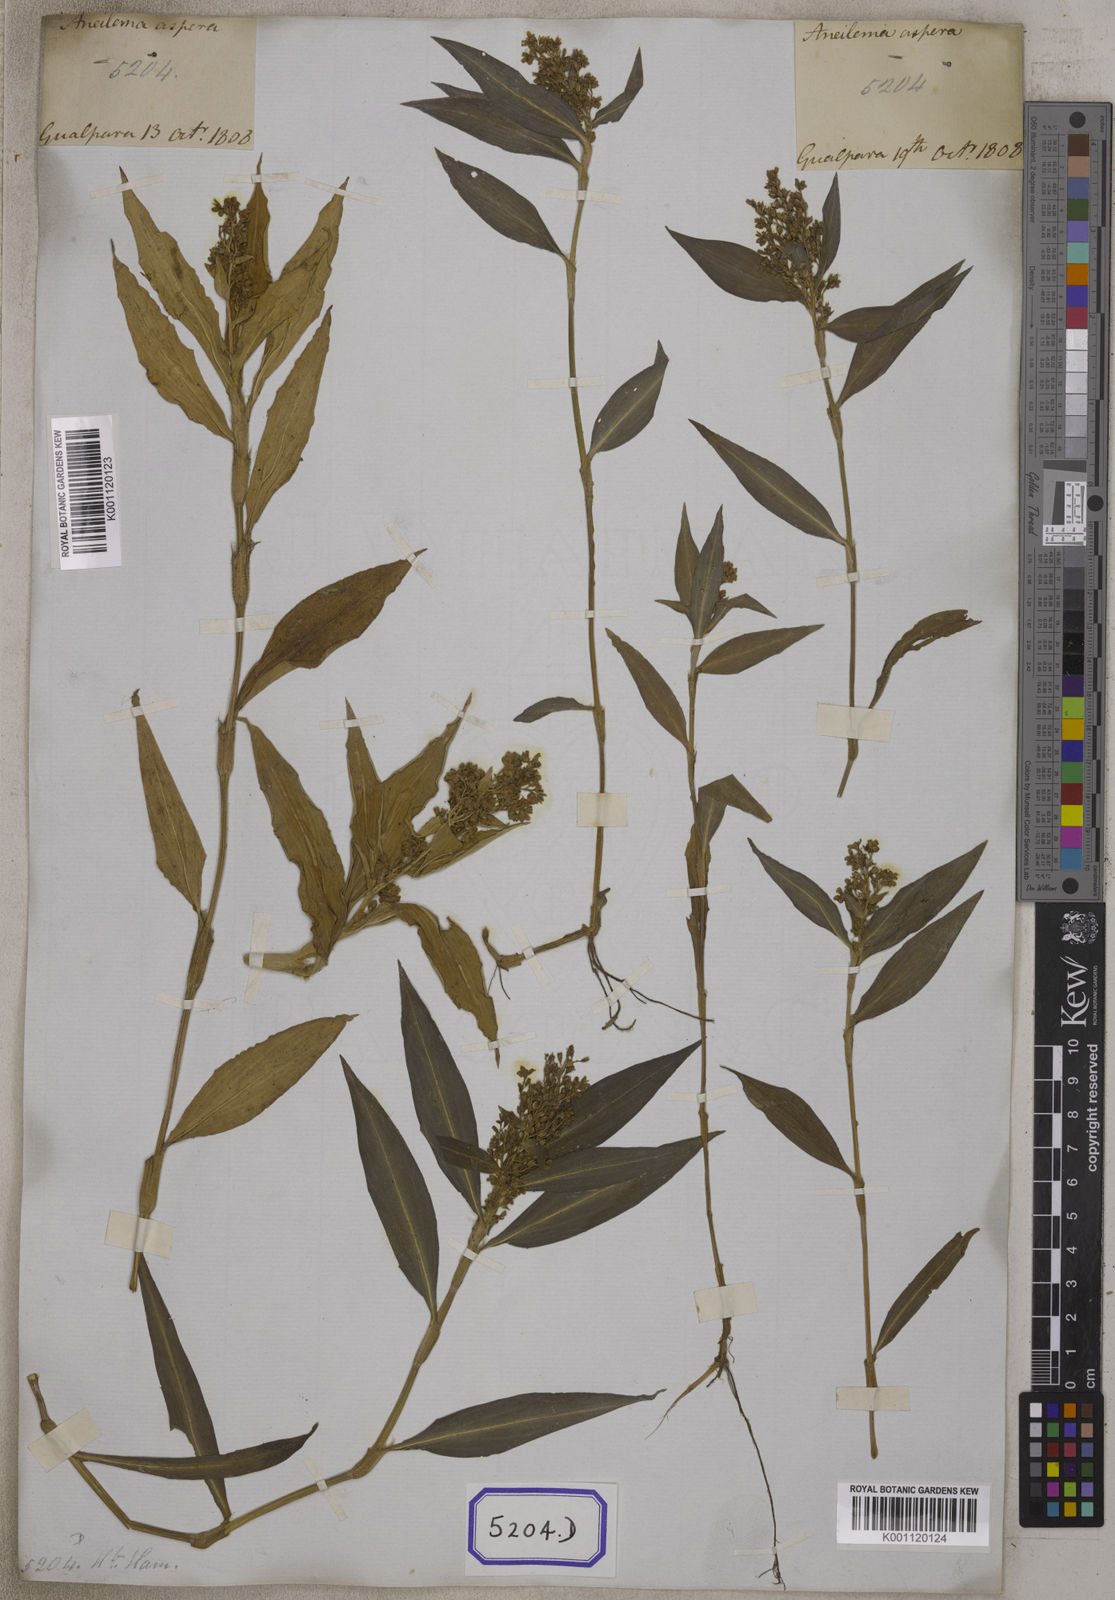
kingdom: Plantae
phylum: Tracheophyta
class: Liliopsida
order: Commelinales
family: Commelinaceae
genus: Floscopa
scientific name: Floscopa scandens
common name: Climbing flower cup
